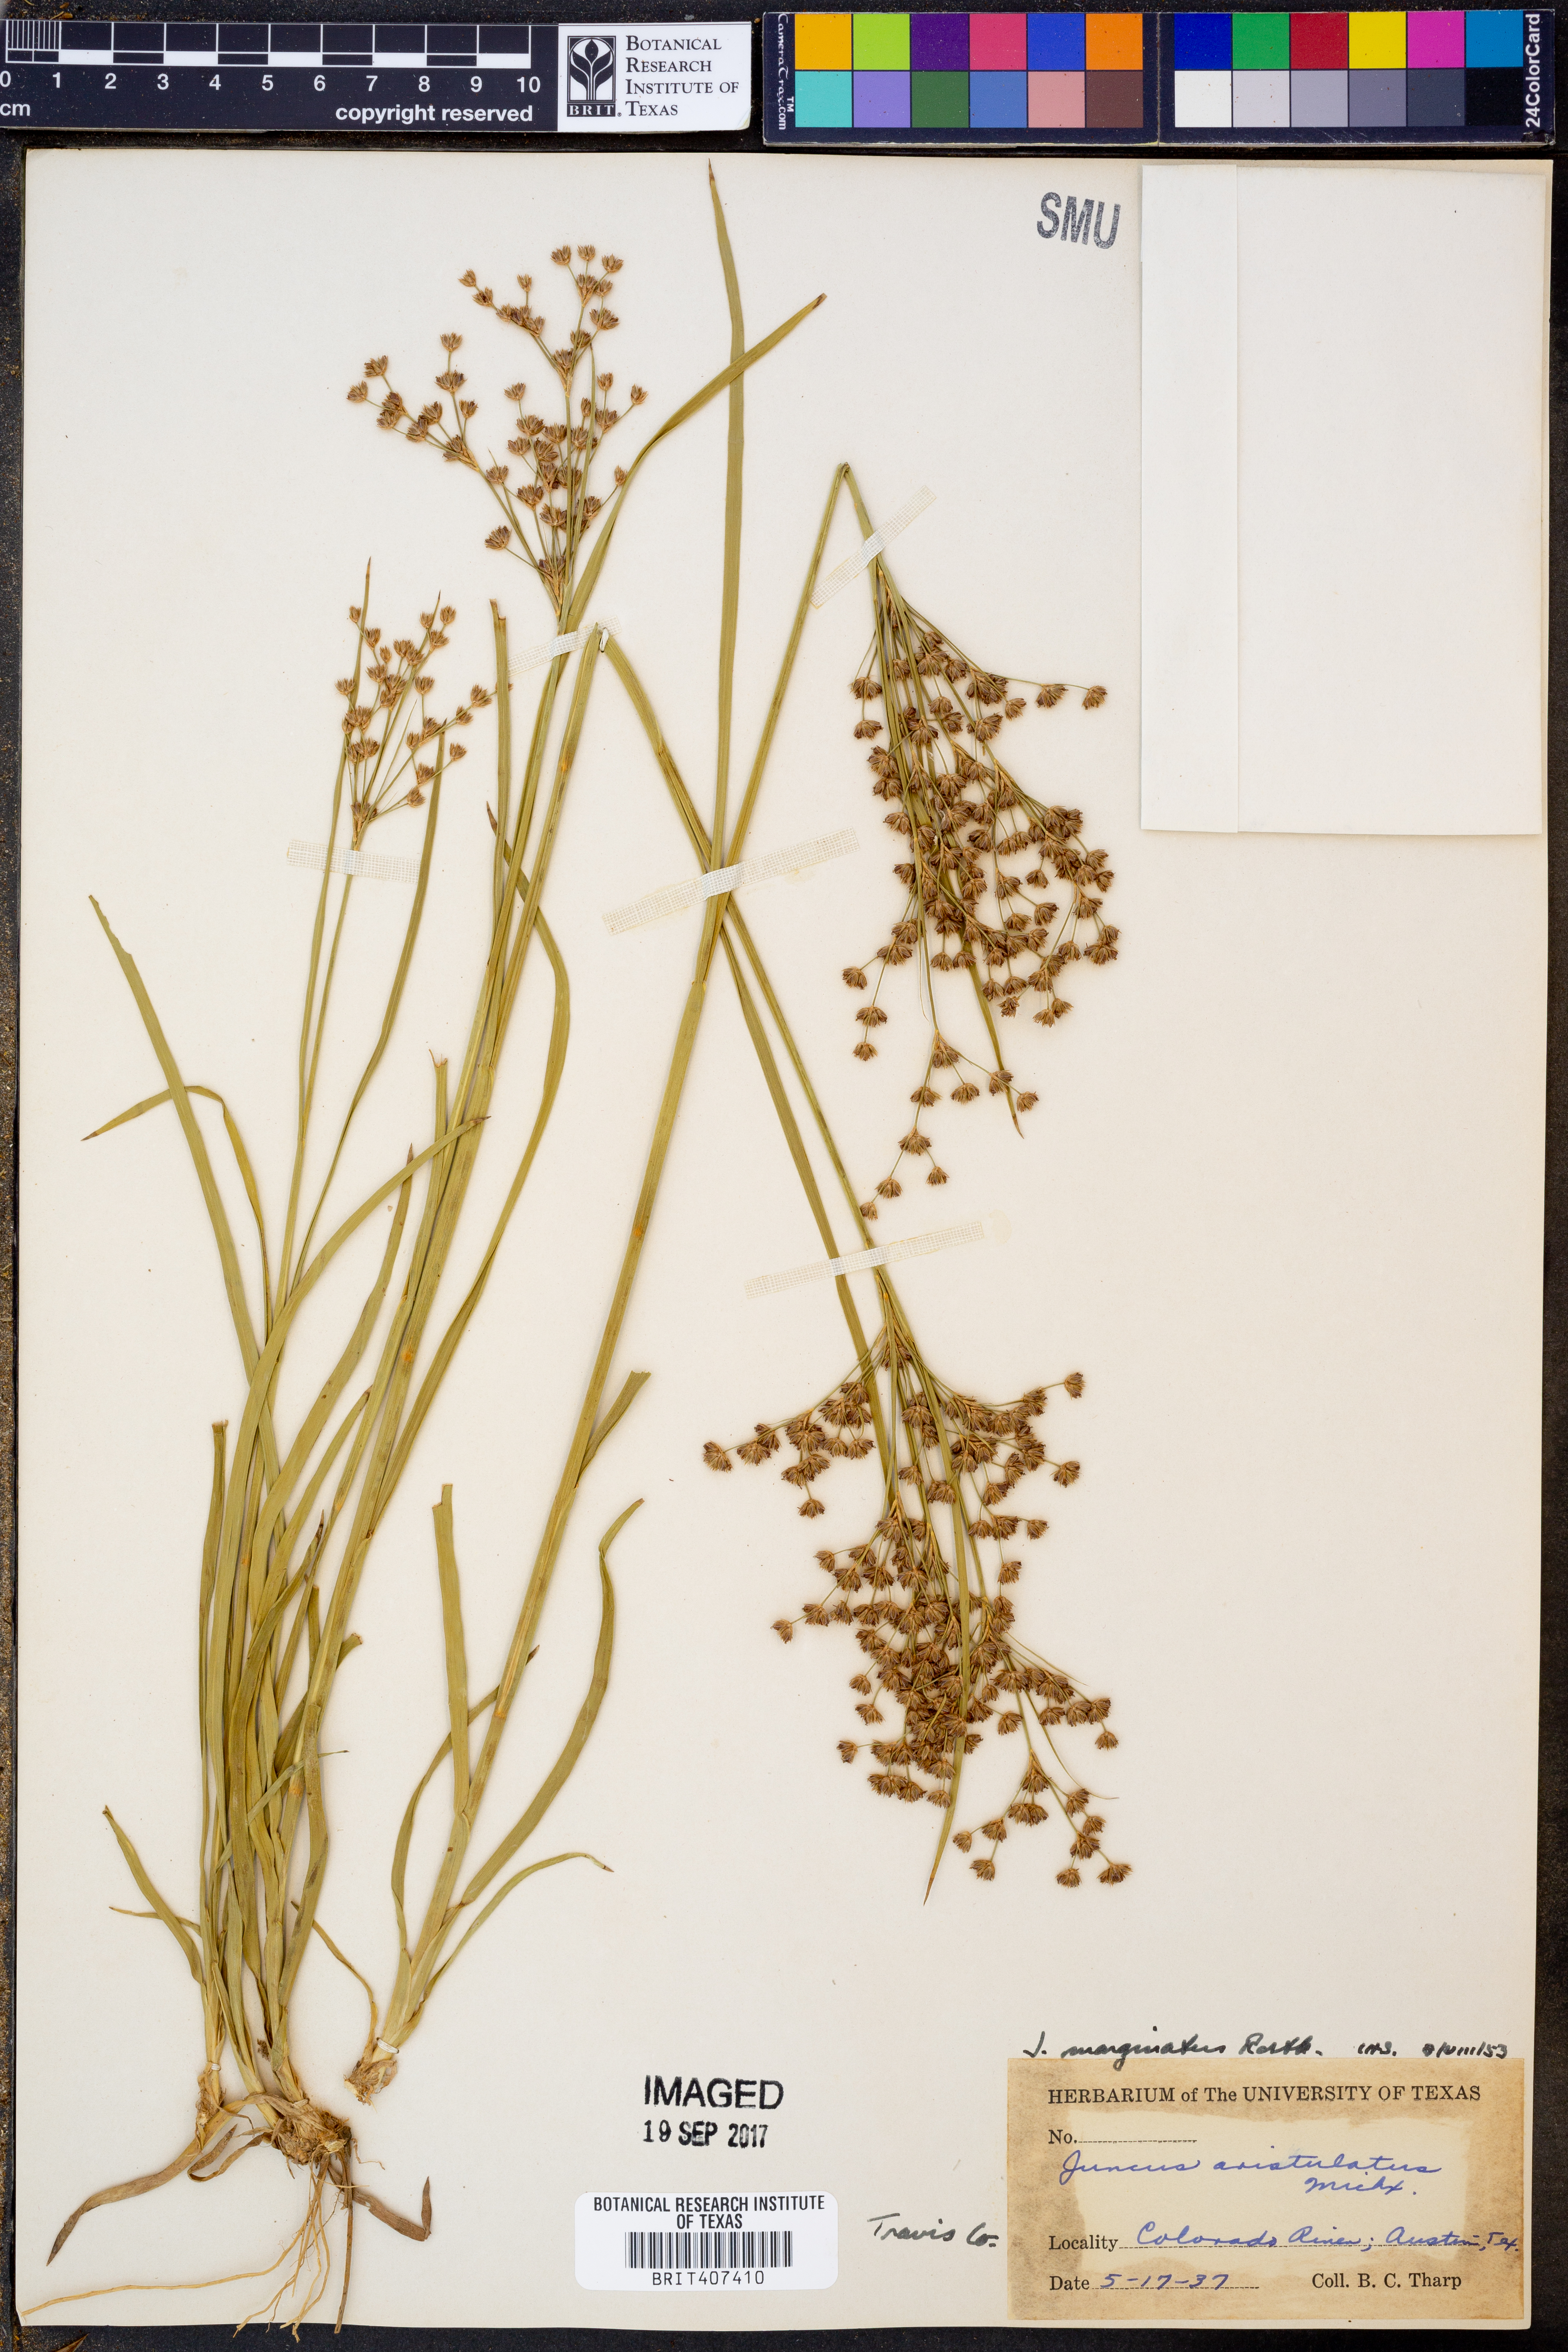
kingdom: Plantae
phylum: Tracheophyta
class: Liliopsida
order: Poales
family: Juncaceae
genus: Juncus
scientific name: Juncus marginatus
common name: Grass-leaf rush
